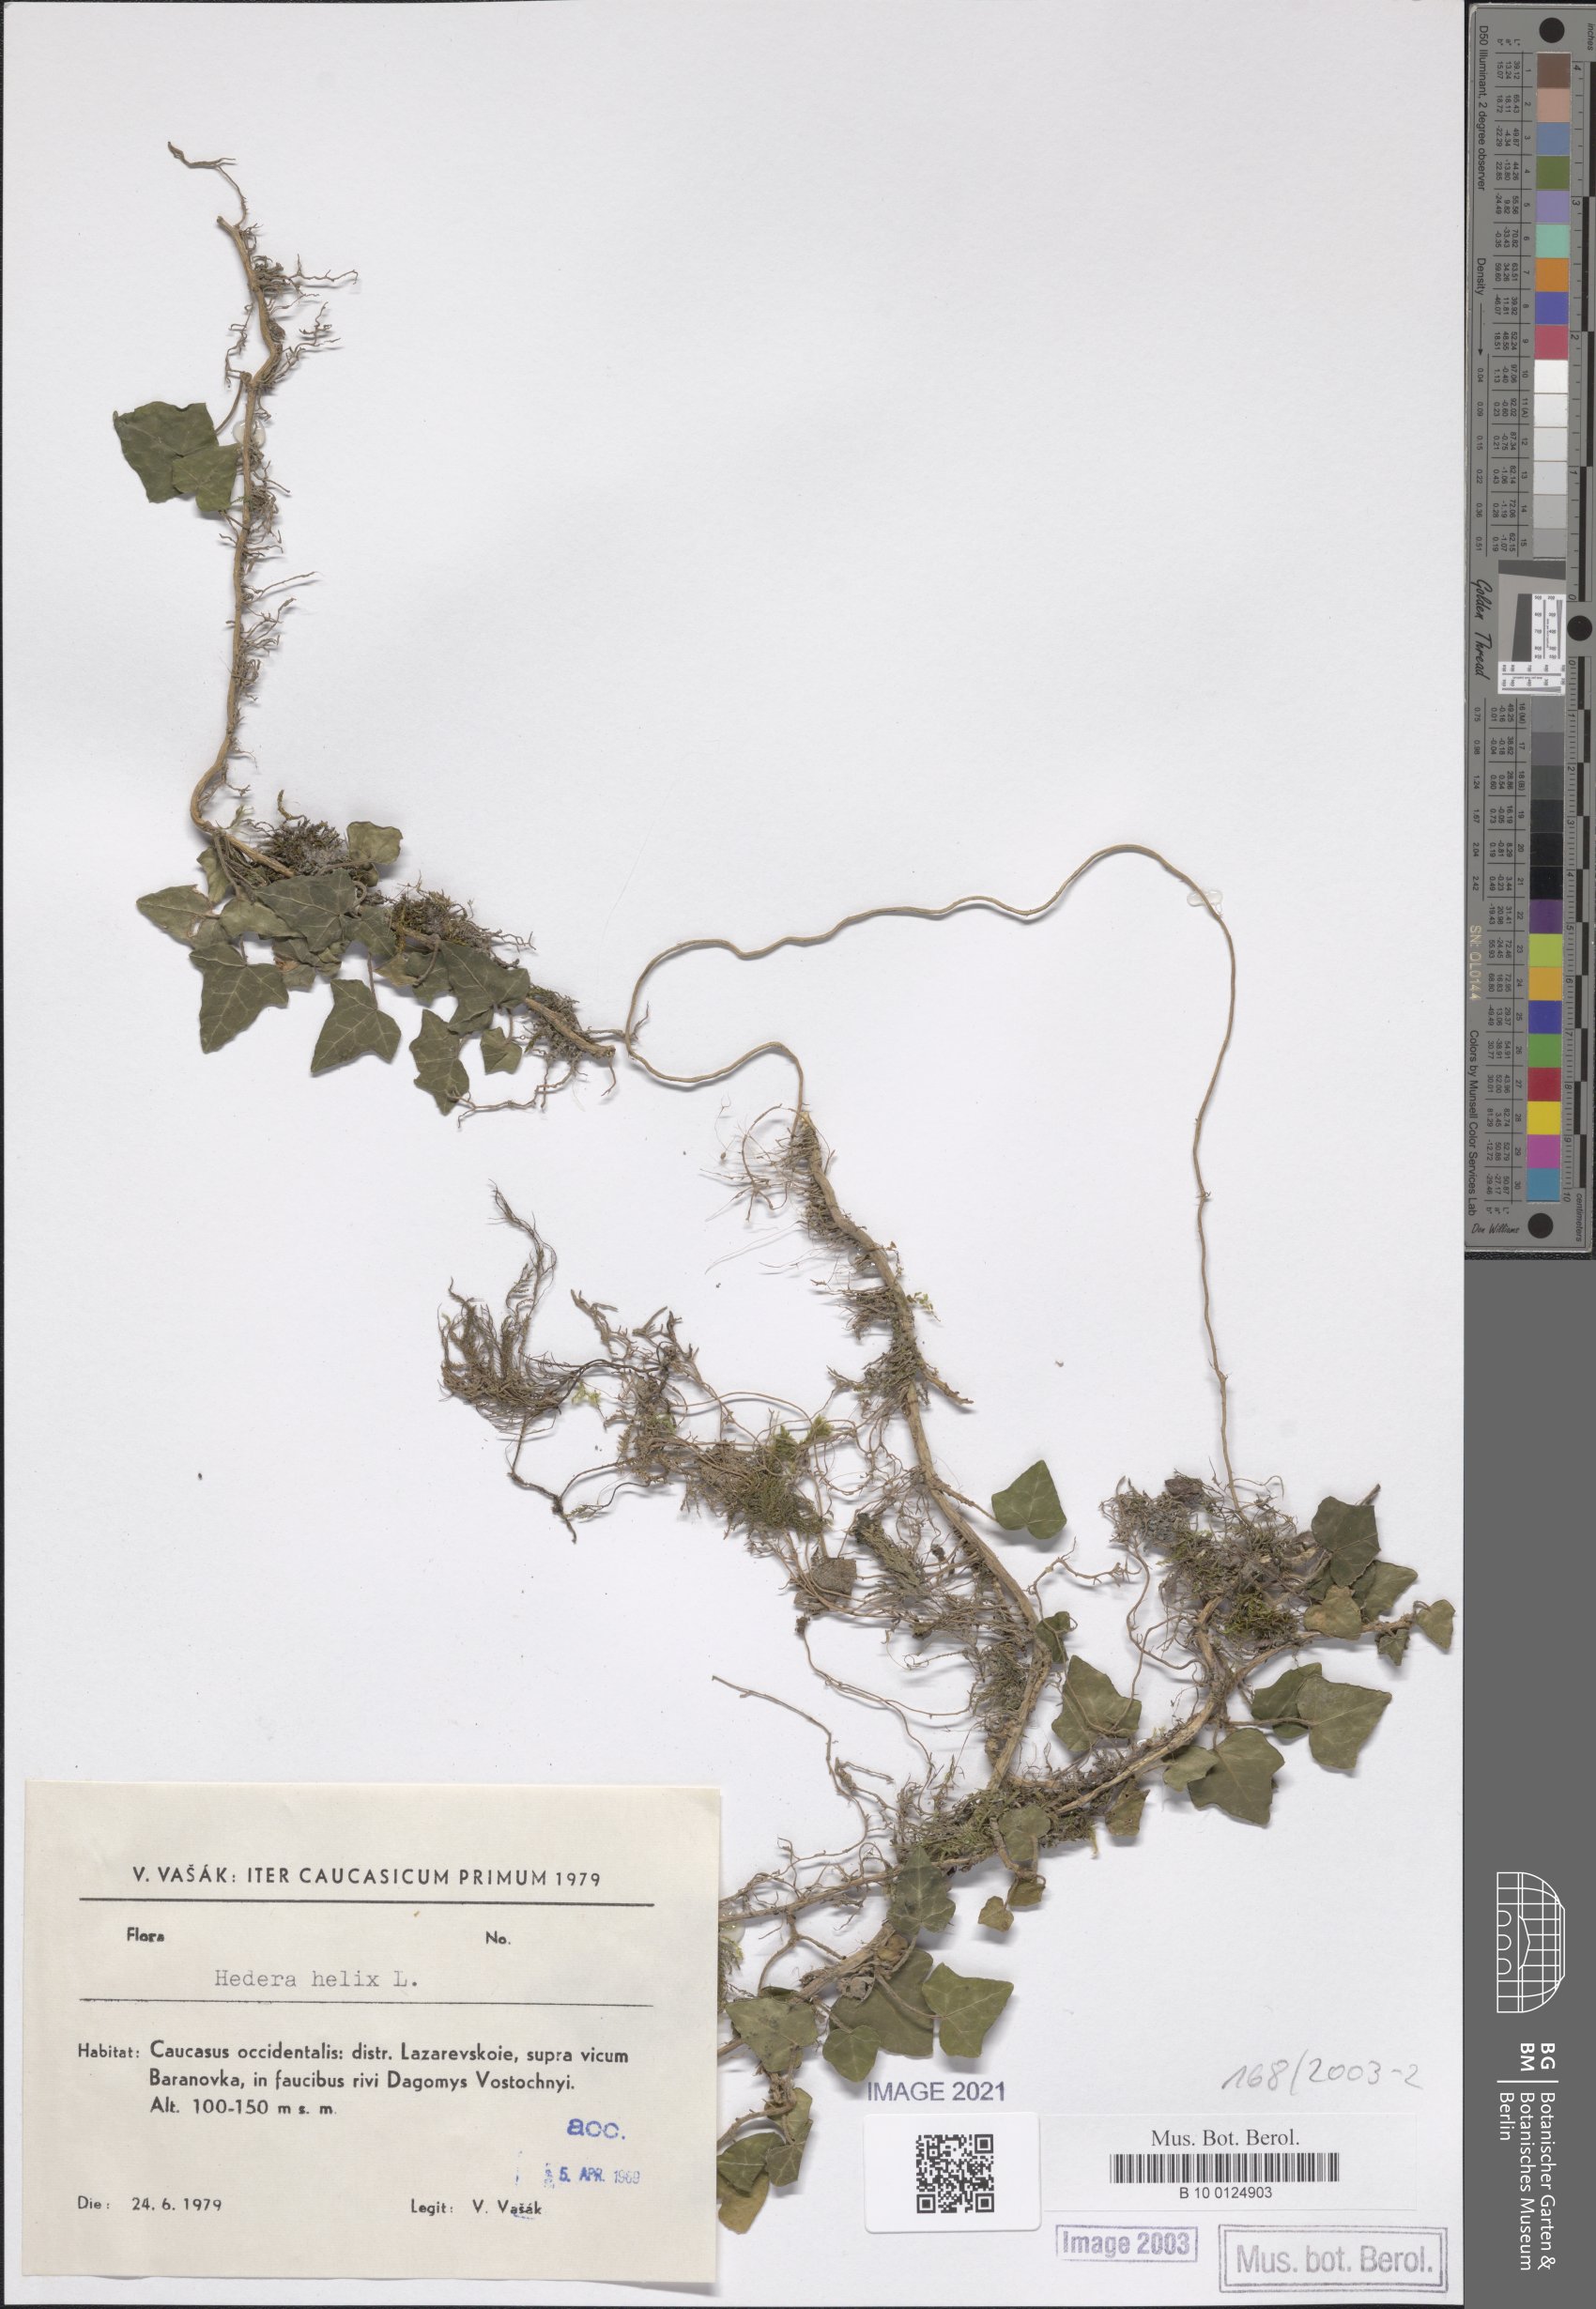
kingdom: Plantae
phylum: Tracheophyta
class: Magnoliopsida
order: Apiales
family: Araliaceae
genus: Hedera
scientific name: Hedera helix
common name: Ivy
